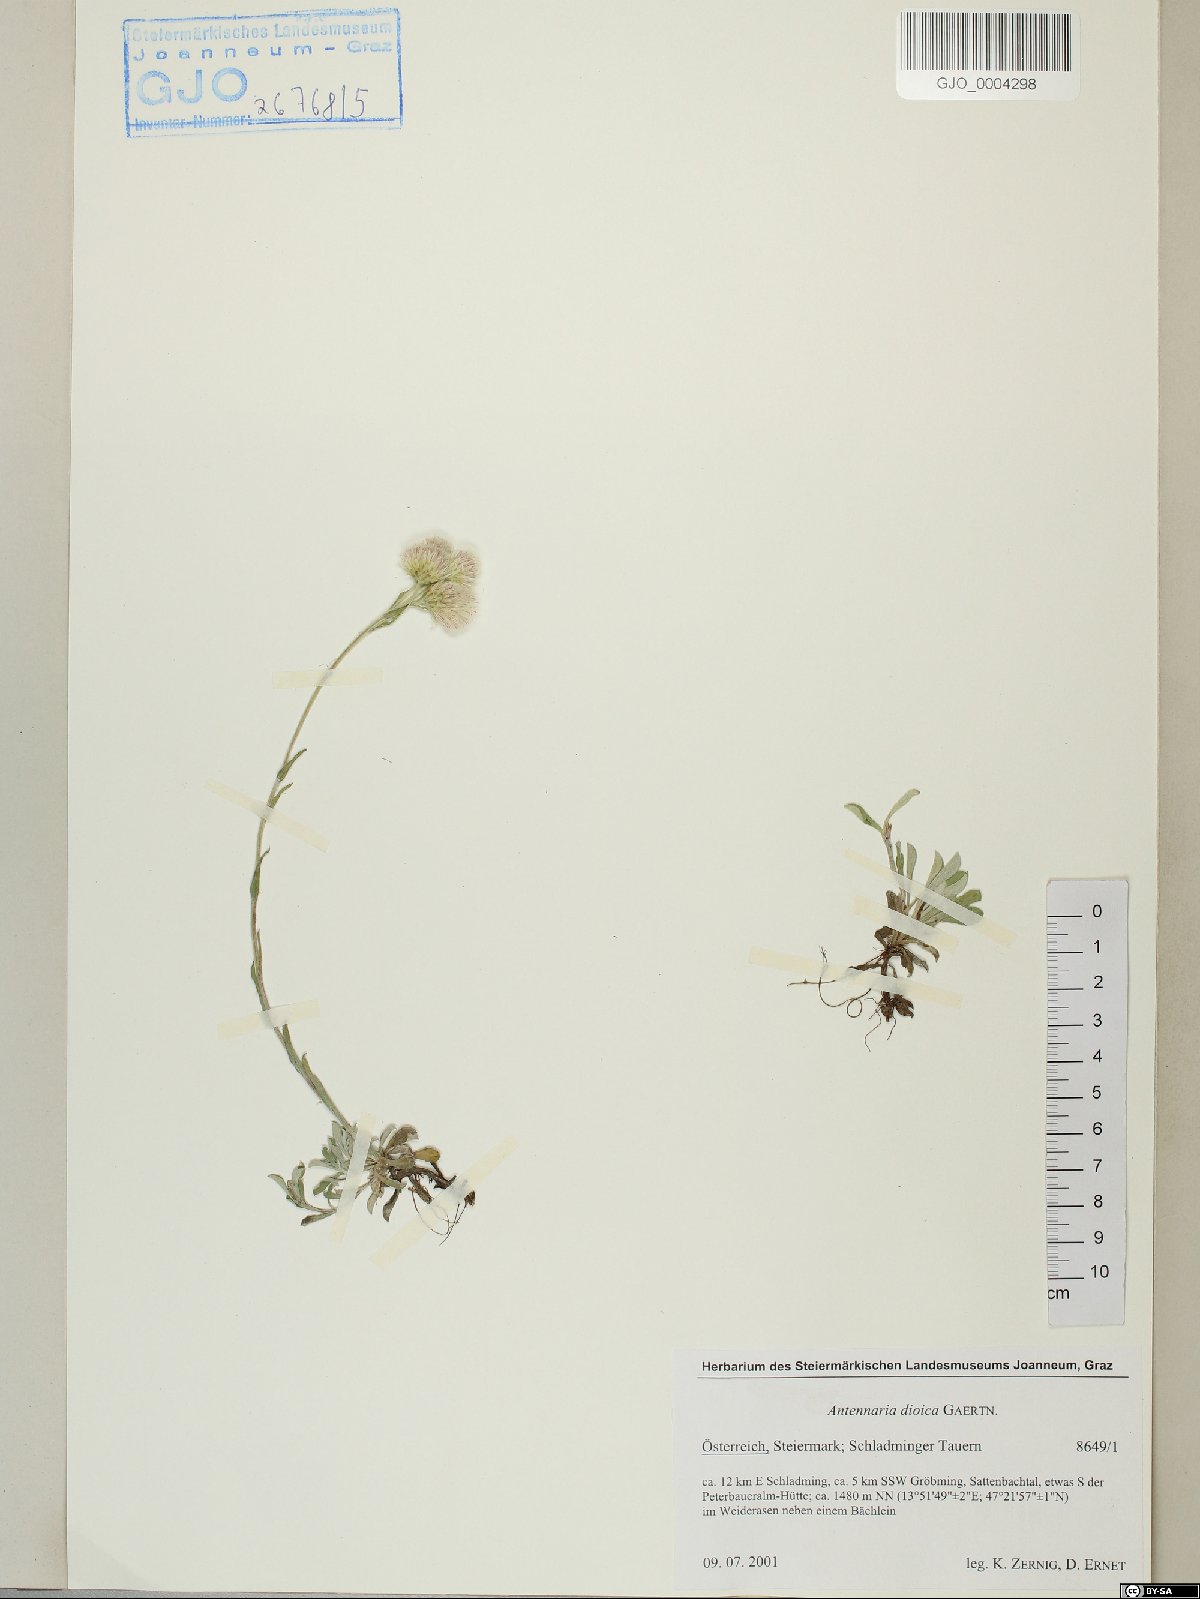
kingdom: Plantae
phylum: Tracheophyta
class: Magnoliopsida
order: Asterales
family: Asteraceae
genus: Antennaria
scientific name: Antennaria dioica
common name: Mountain everlasting
